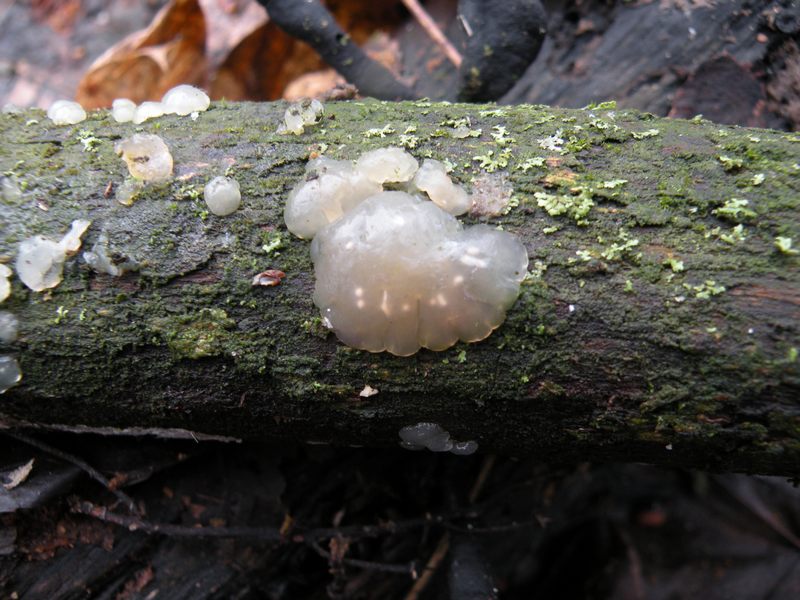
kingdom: Fungi
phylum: Basidiomycota
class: Agaricomycetes
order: Auriculariales
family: Hyaloriaceae
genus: Myxarium
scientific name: Myxarium nucleatum
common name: klar bævretop
